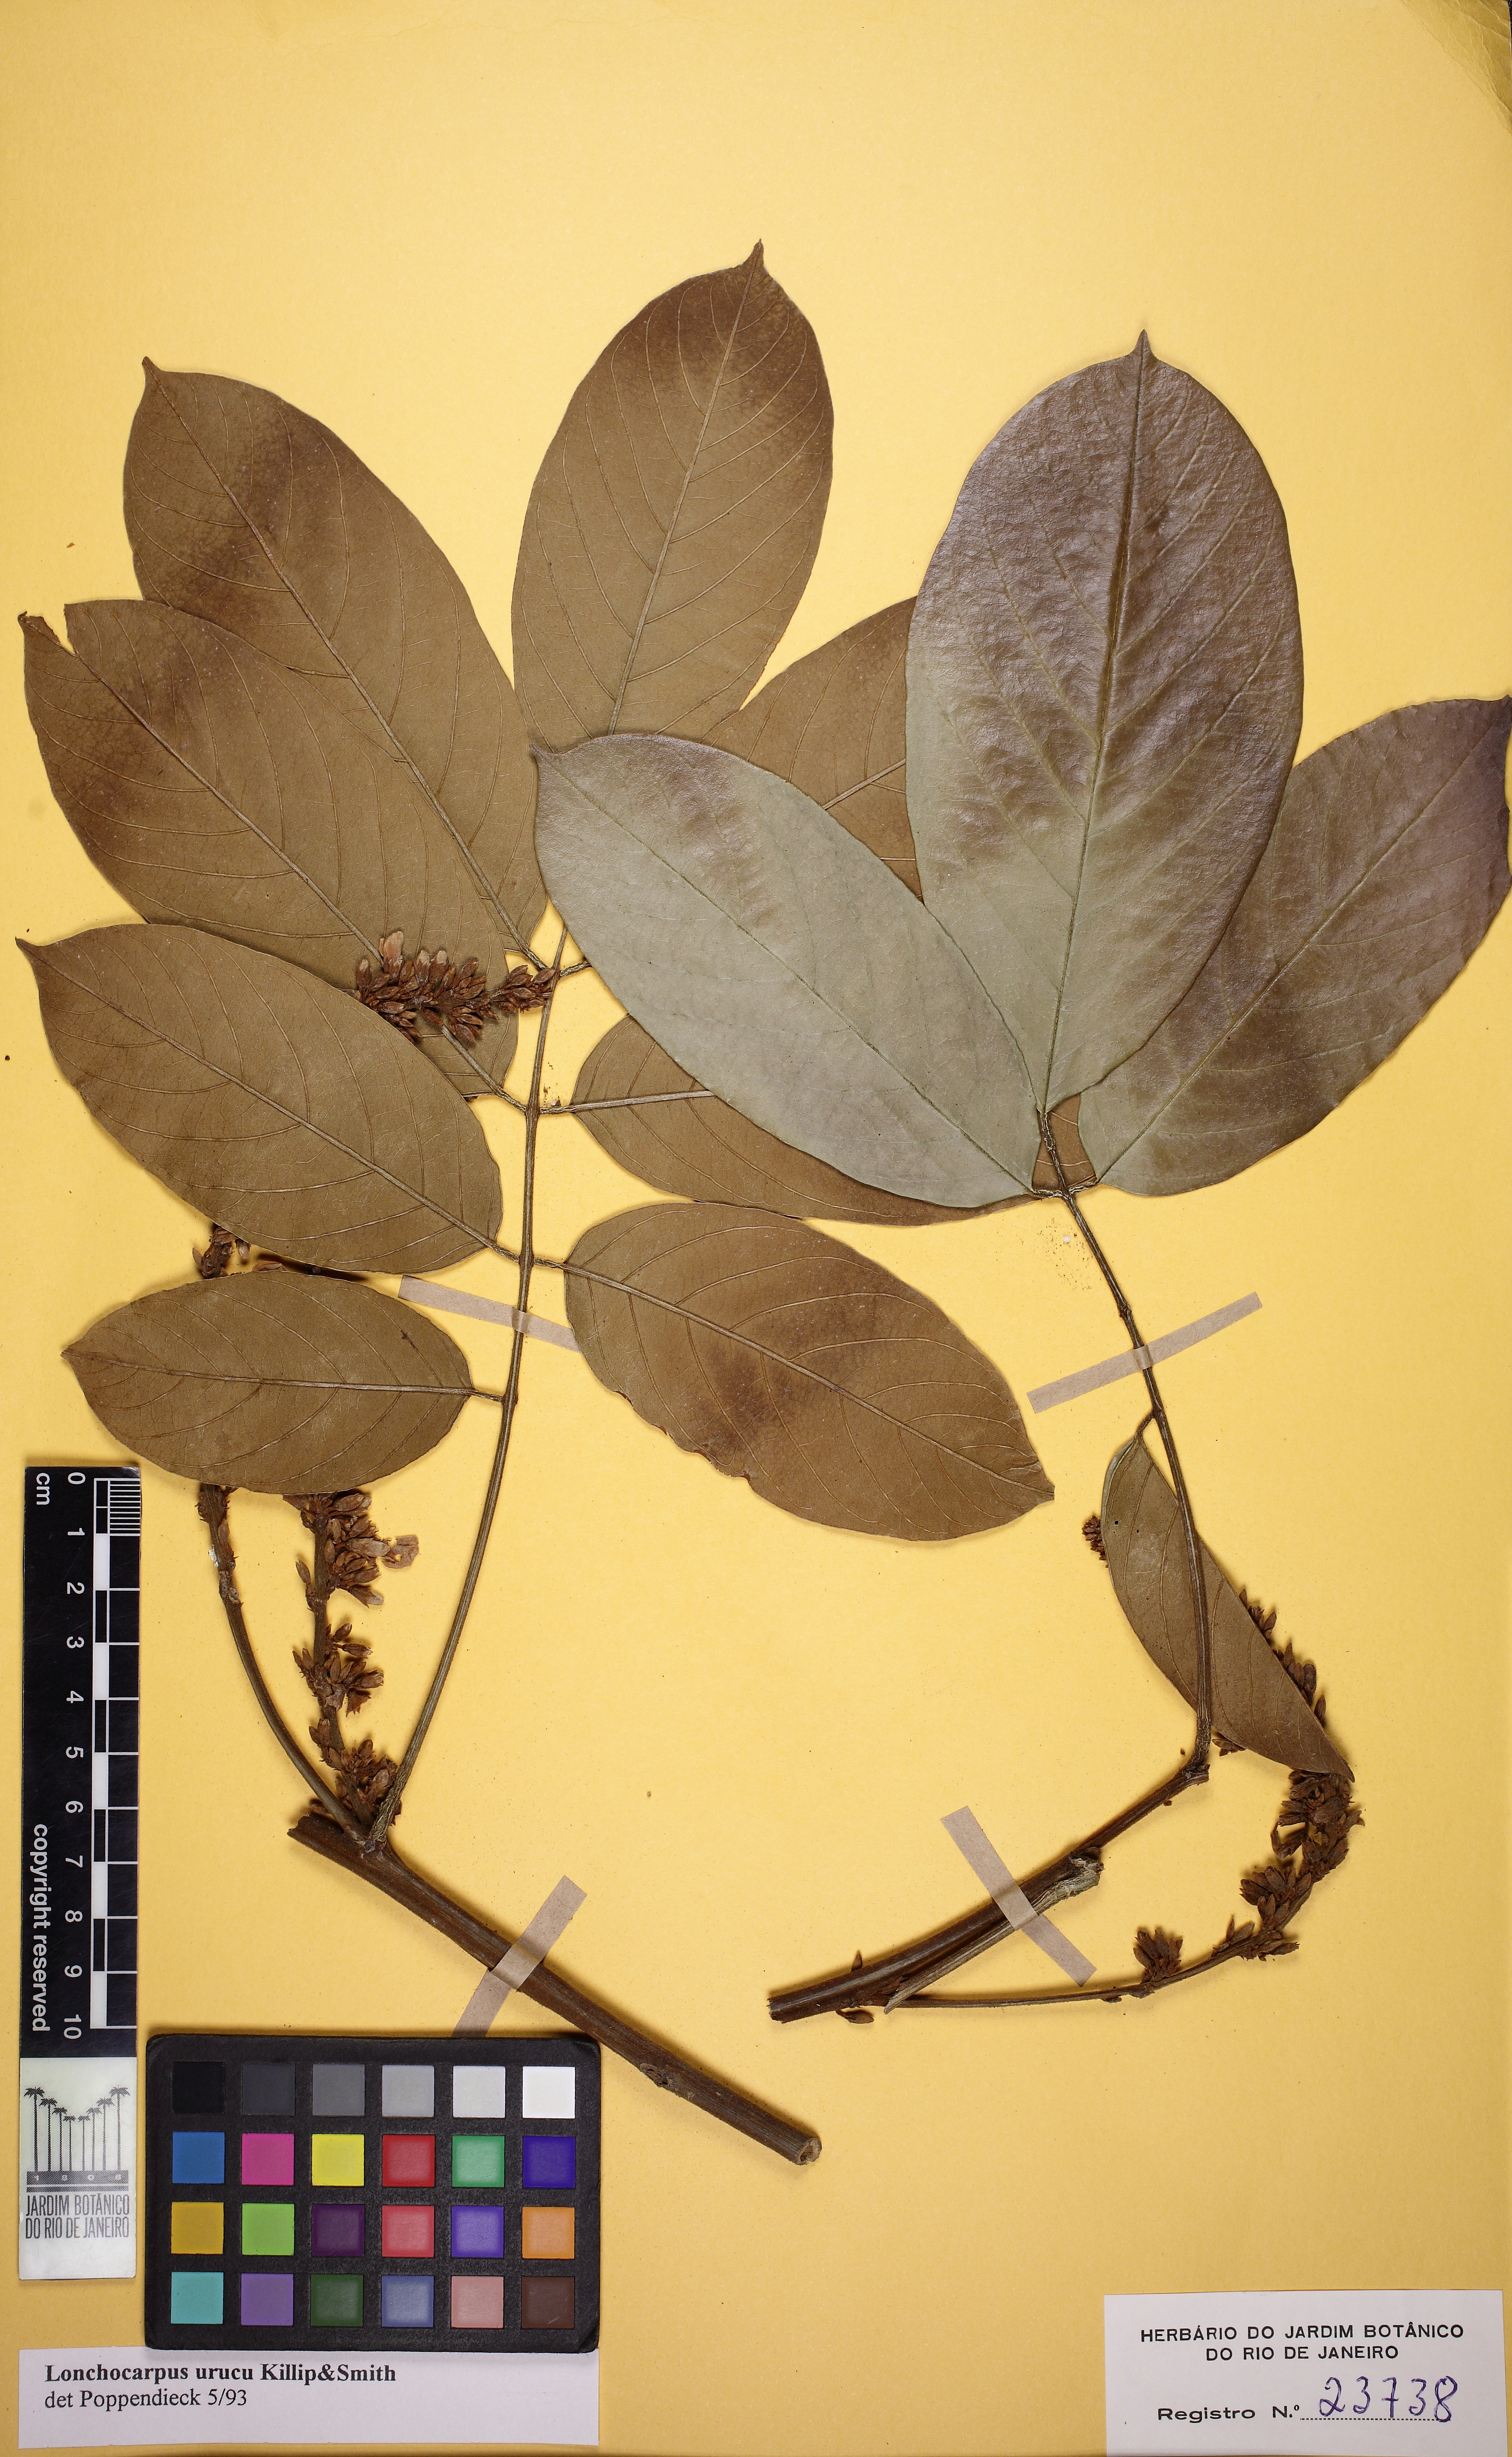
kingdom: Plantae
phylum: Tracheophyta
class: Magnoliopsida
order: Fabales
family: Fabaceae
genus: Deguelia
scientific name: Deguelia urucu
